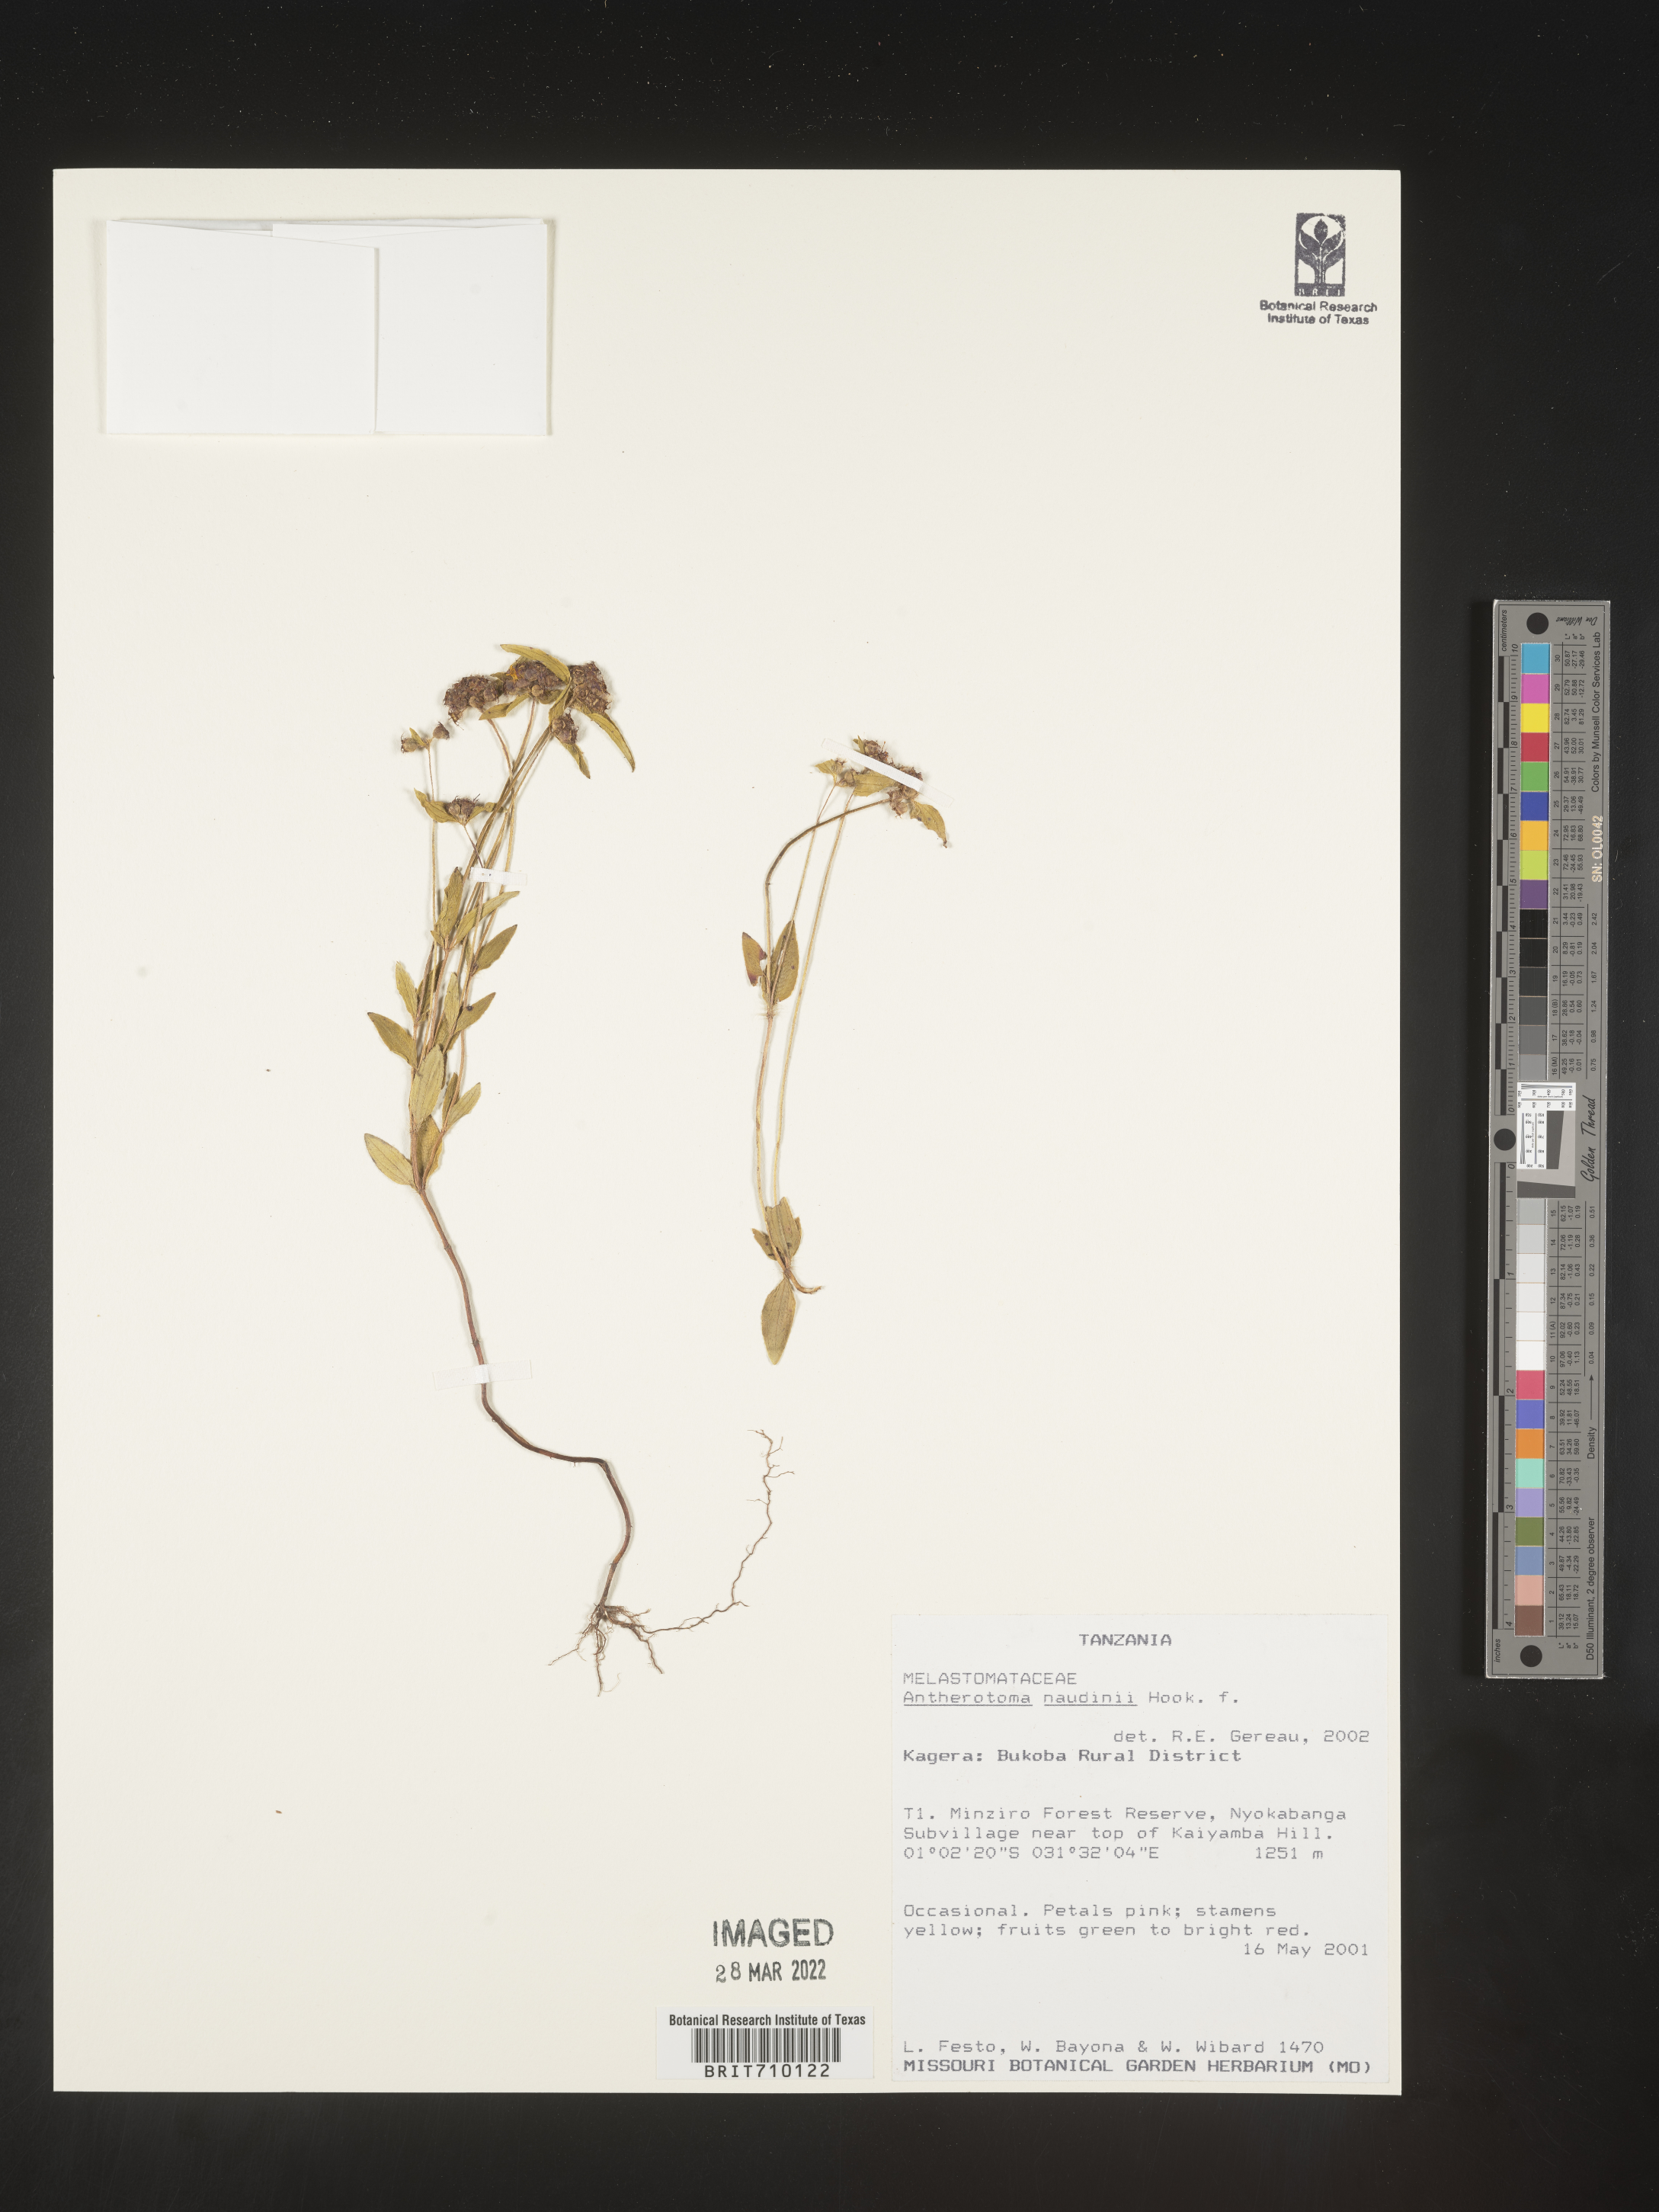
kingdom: Plantae
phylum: Tracheophyta
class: Magnoliopsida
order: Myrtales
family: Melastomataceae
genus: Antherotoma
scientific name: Antherotoma
